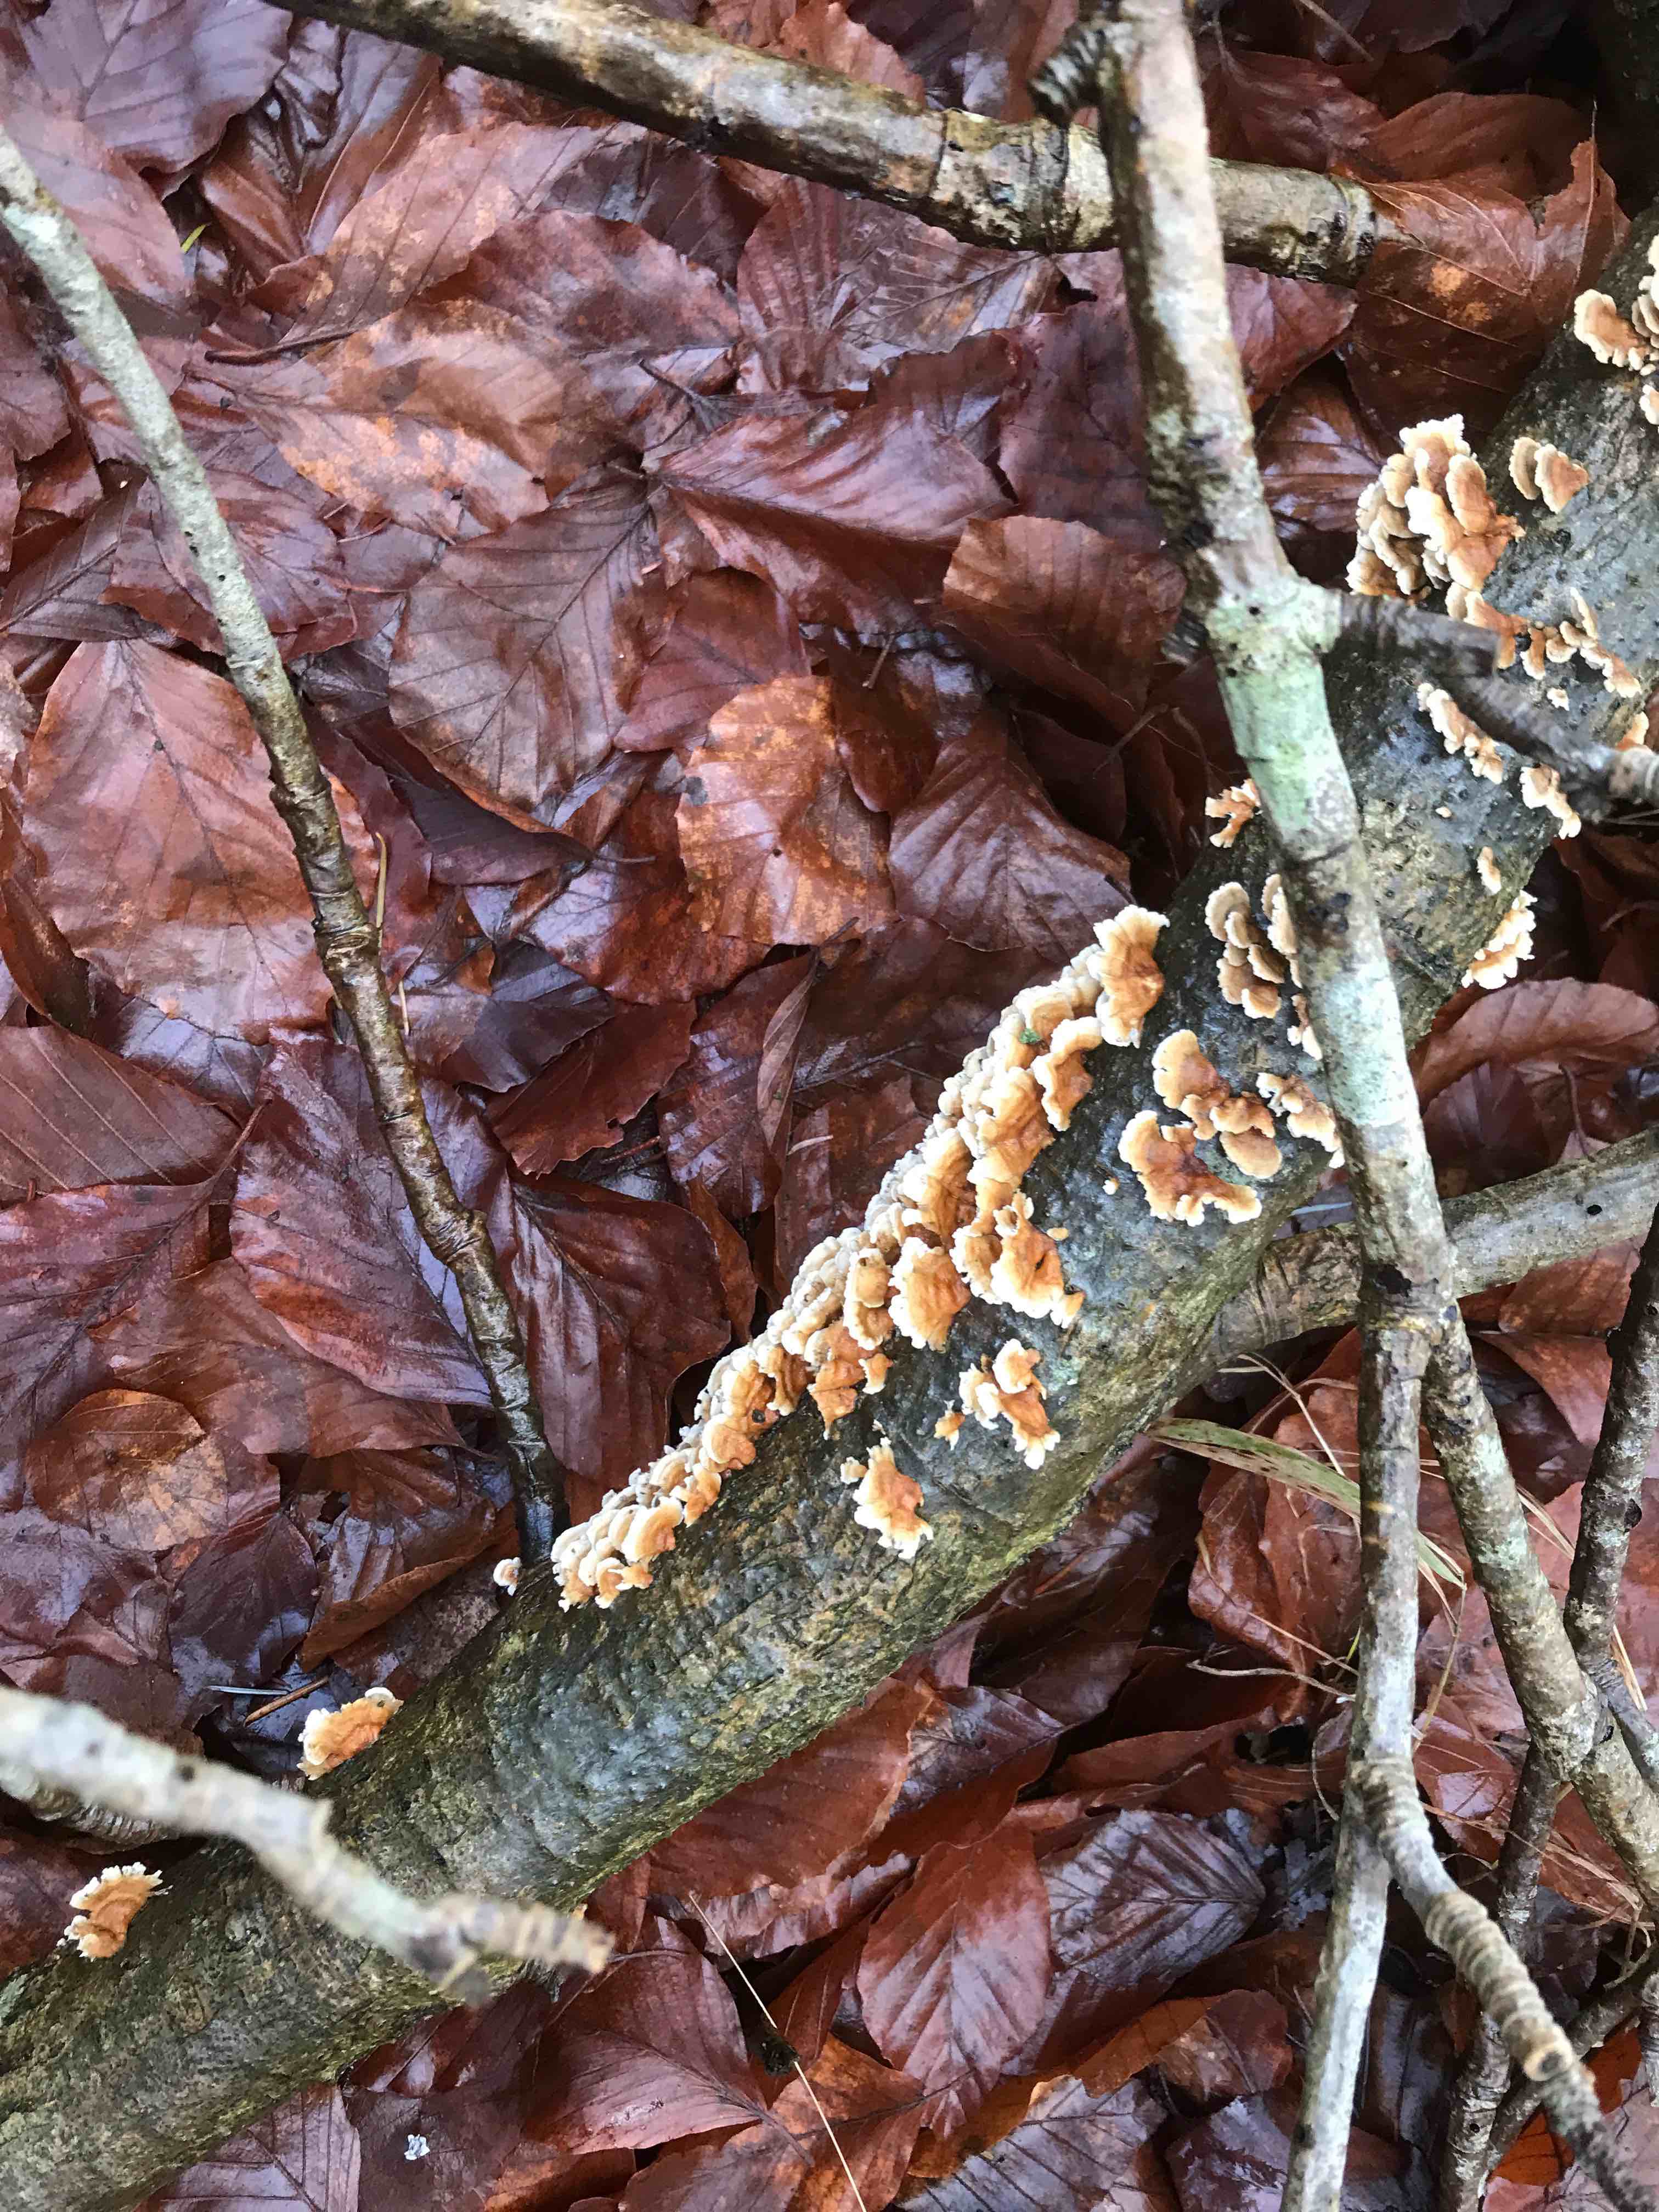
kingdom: Fungi
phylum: Basidiomycota
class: Agaricomycetes
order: Amylocorticiales
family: Amylocorticiaceae
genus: Plicaturopsis
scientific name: Plicaturopsis crispa
